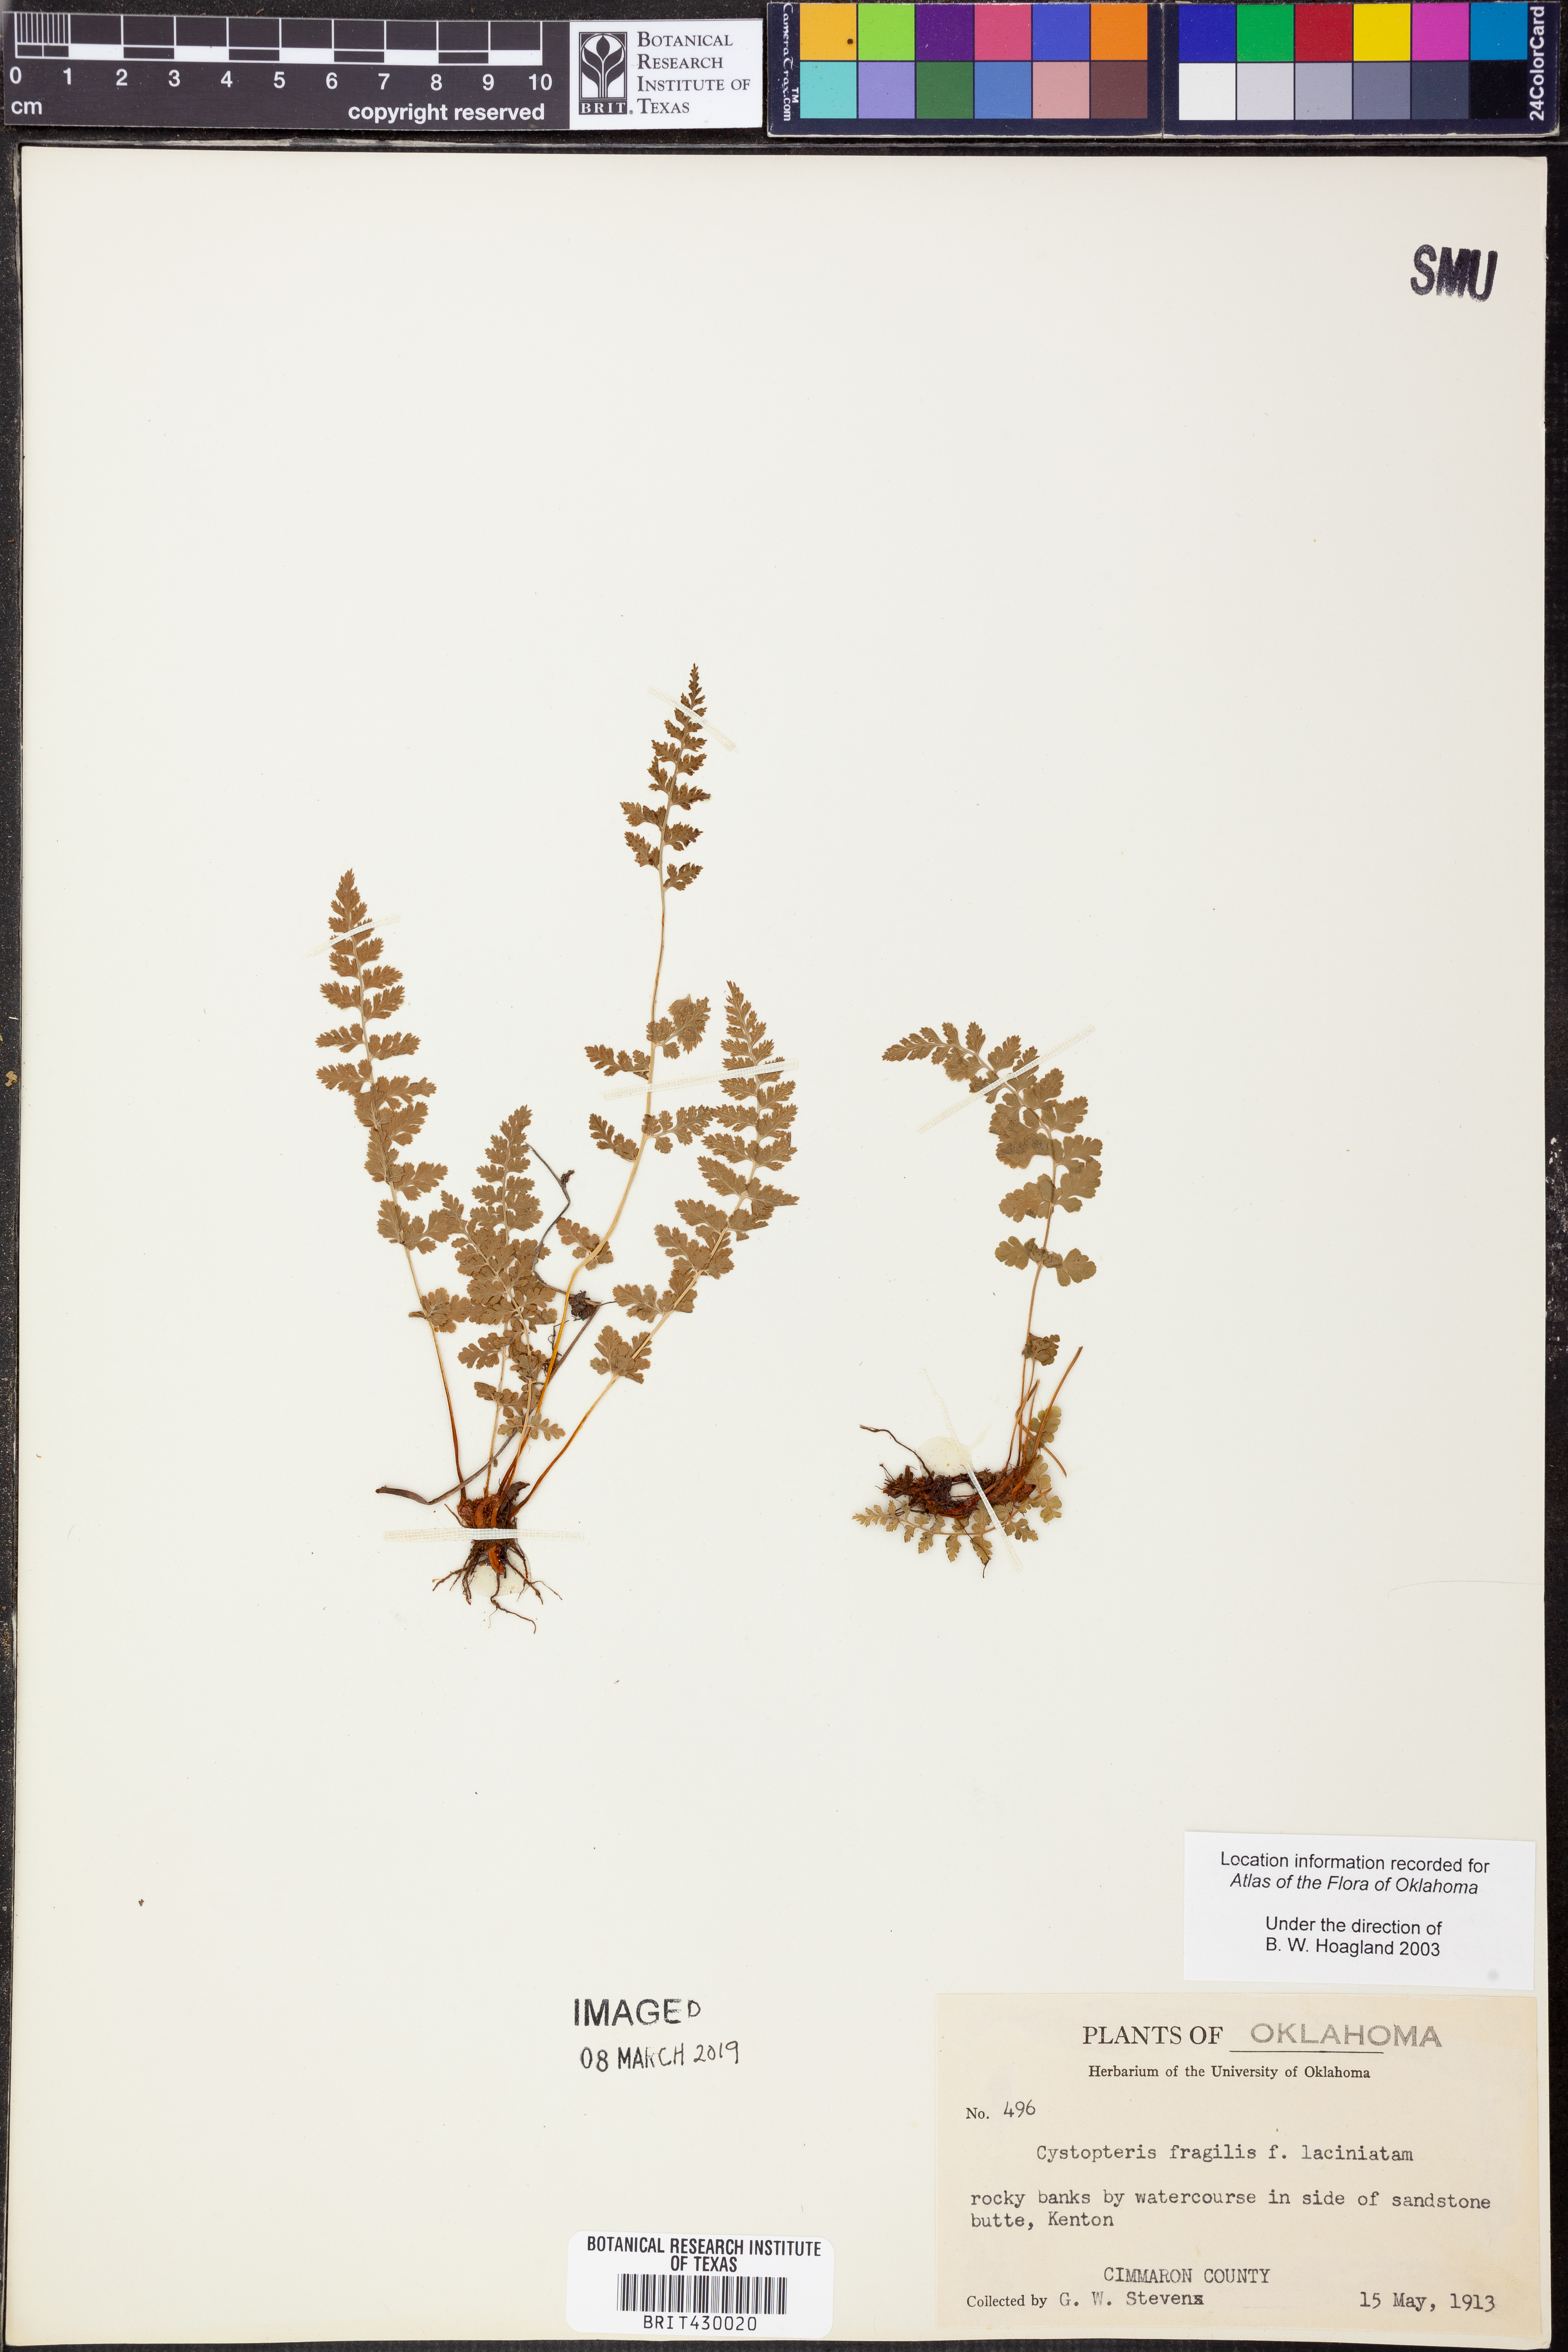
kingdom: Plantae
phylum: Tracheophyta
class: Polypodiopsida
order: Polypodiales
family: Cystopteridaceae
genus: Cystopteris
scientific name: Cystopteris fragilis
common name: Brittle bladder fern
